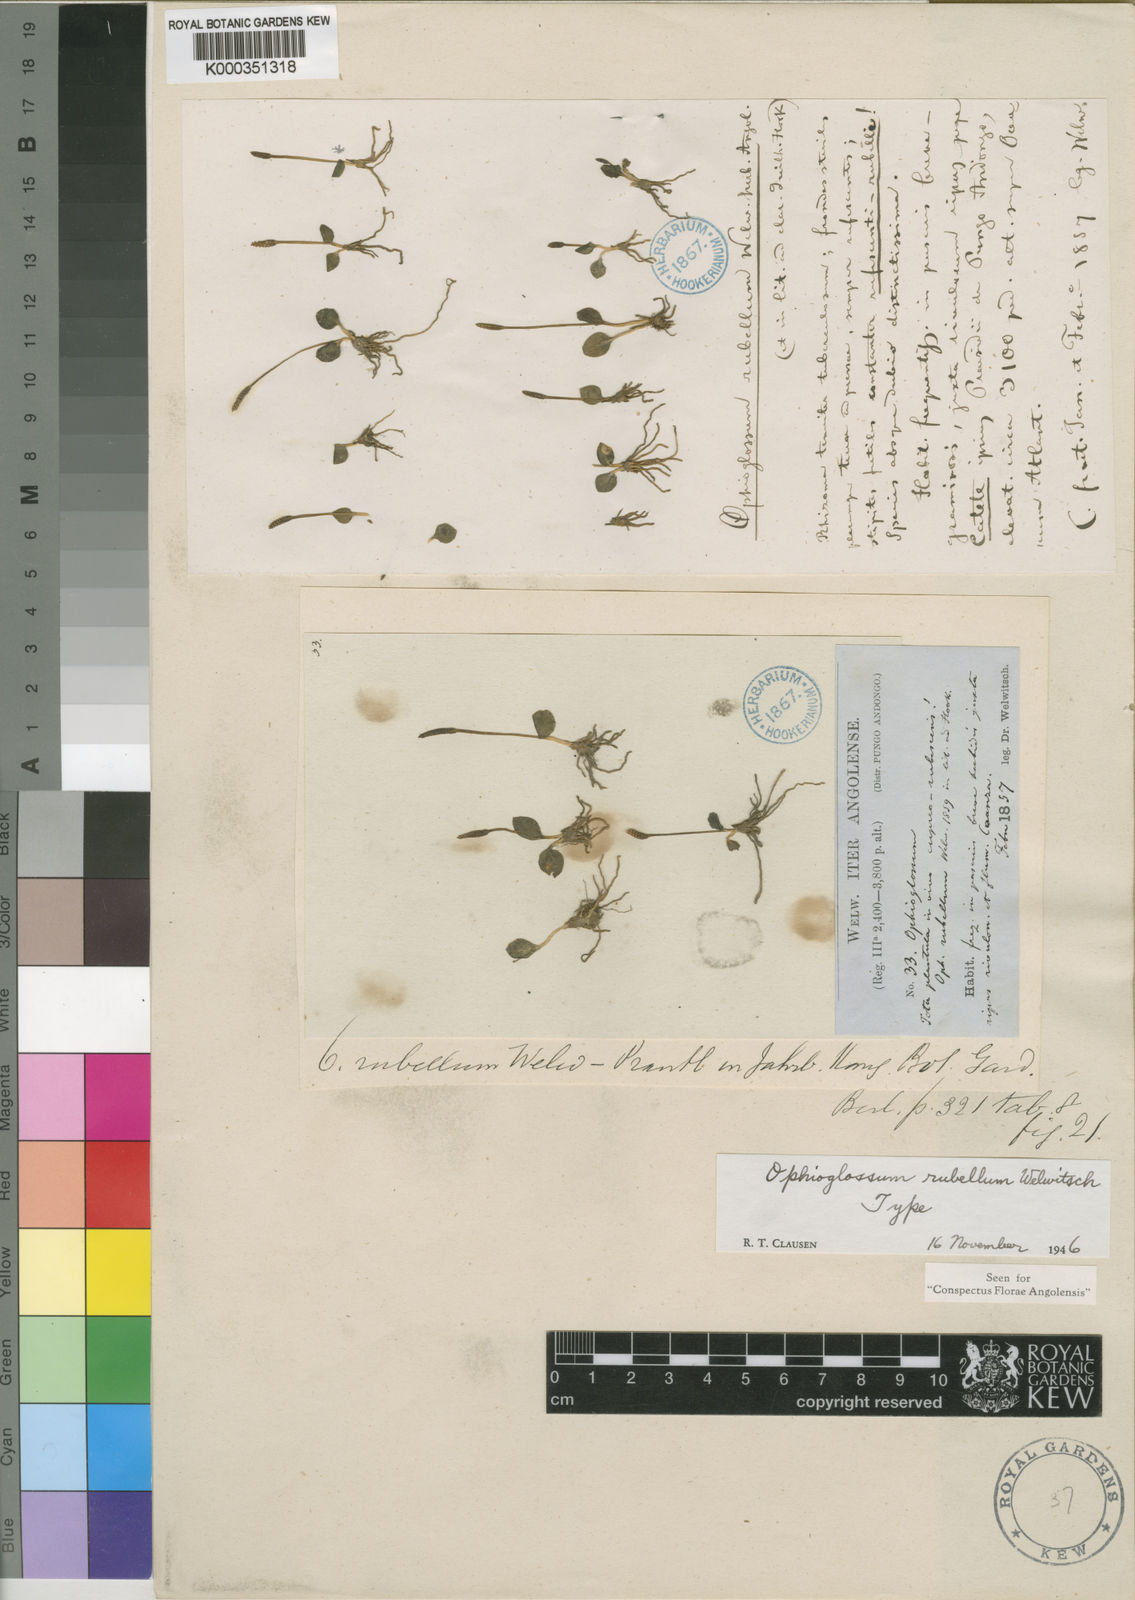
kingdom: Plantae
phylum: Tracheophyta
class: Polypodiopsida
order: Ophioglossales
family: Ophioglossaceae
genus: Ophioglossum
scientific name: Ophioglossum thomasii
